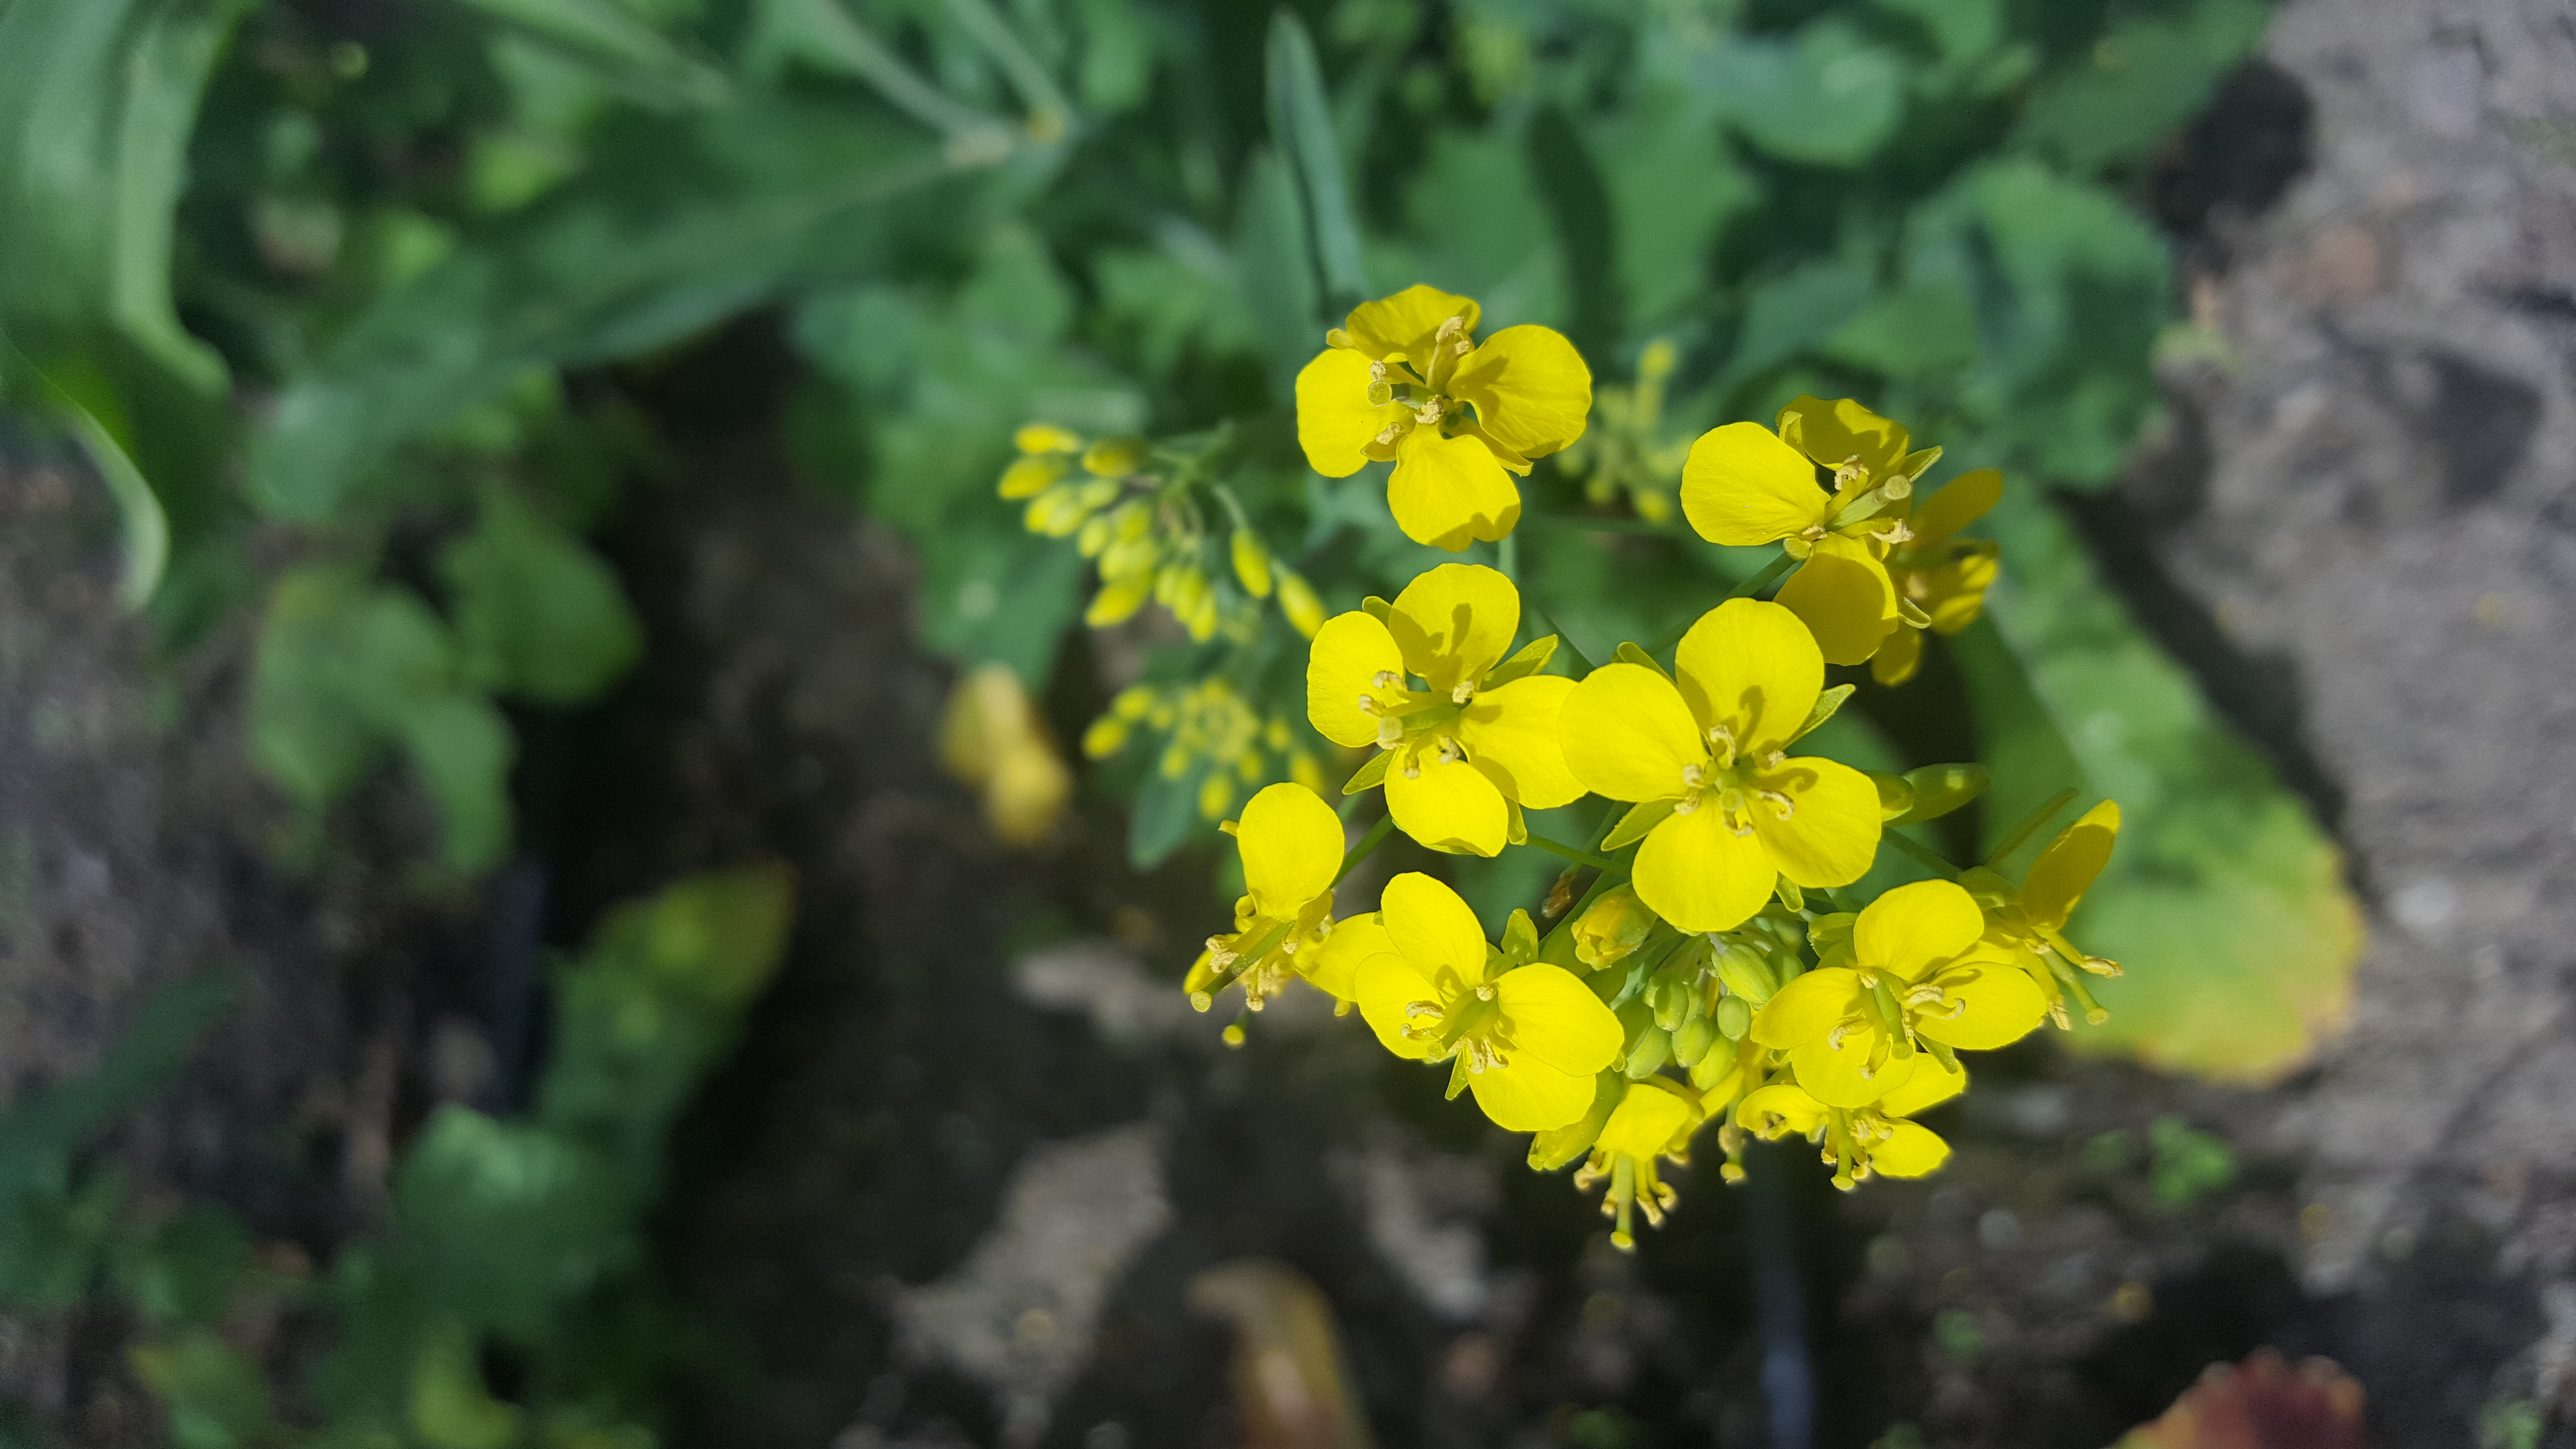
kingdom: Plantae
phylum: Tracheophyta
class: Magnoliopsida
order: Brassicales
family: Brassicaceae
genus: Brassica
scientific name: Brassica rapa
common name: Field mustard
